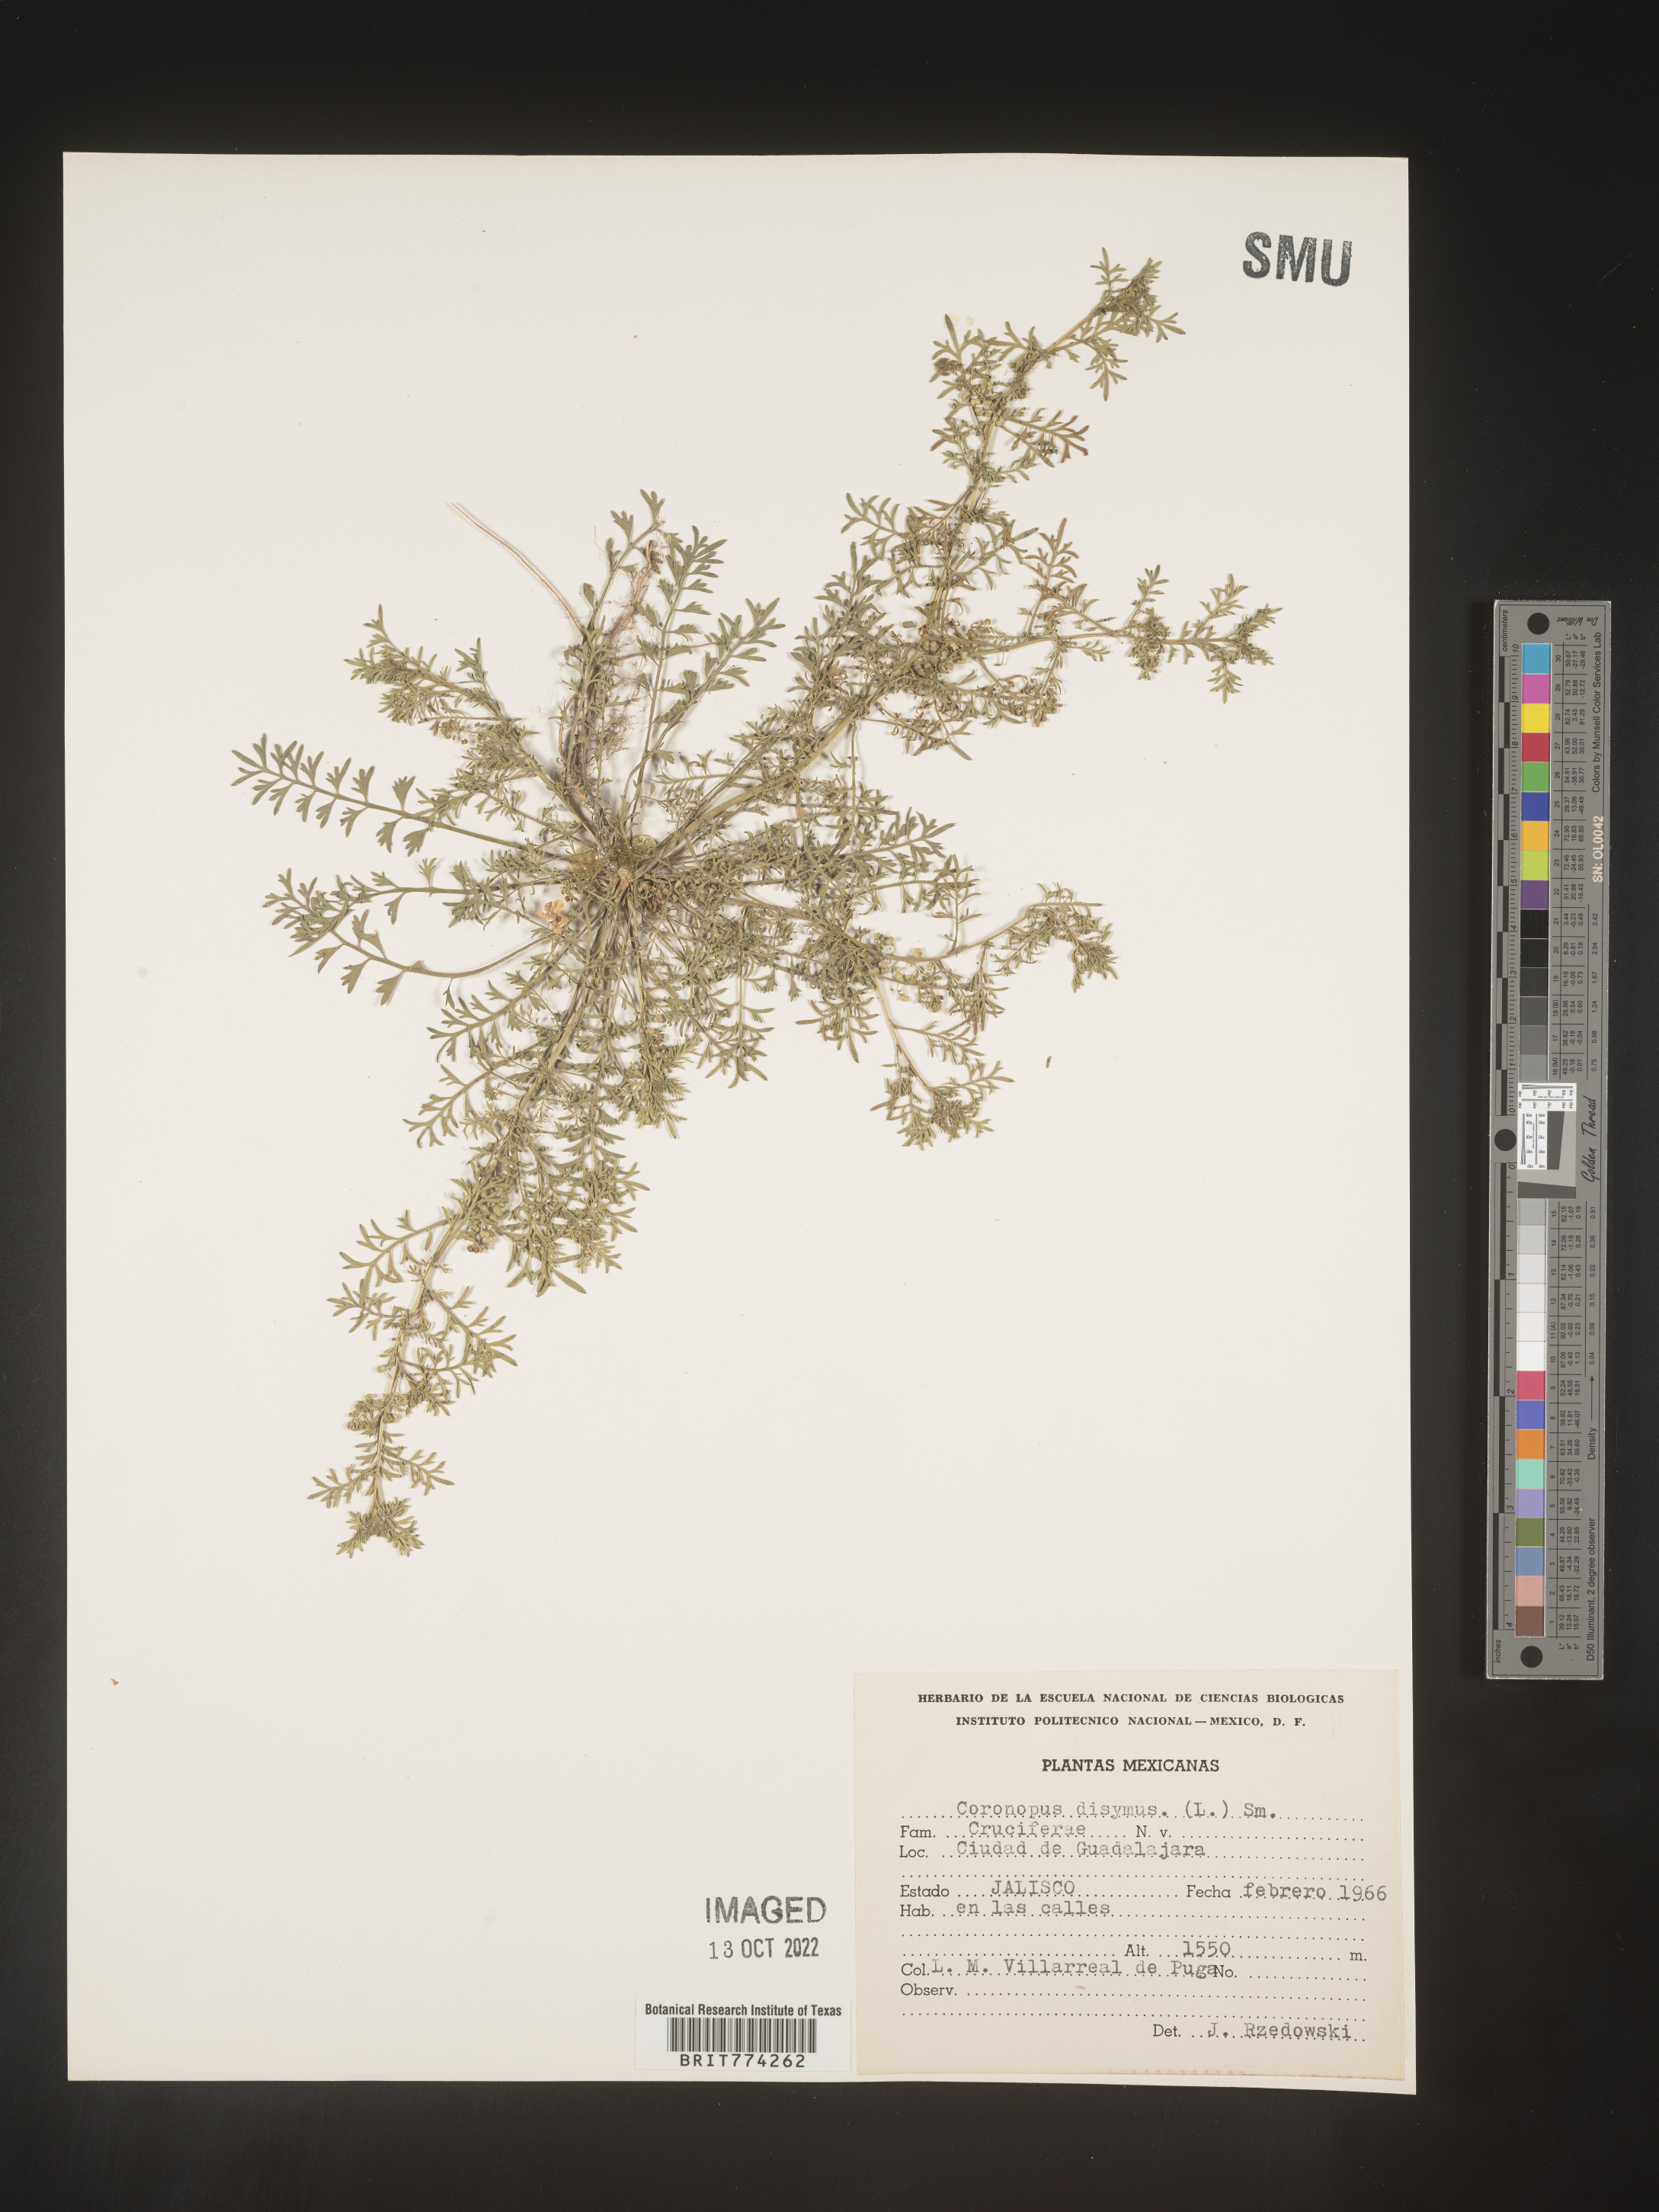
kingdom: Plantae
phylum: Tracheophyta
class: Magnoliopsida
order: Brassicales
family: Brassicaceae
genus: Coronopus
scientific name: Coronopus
